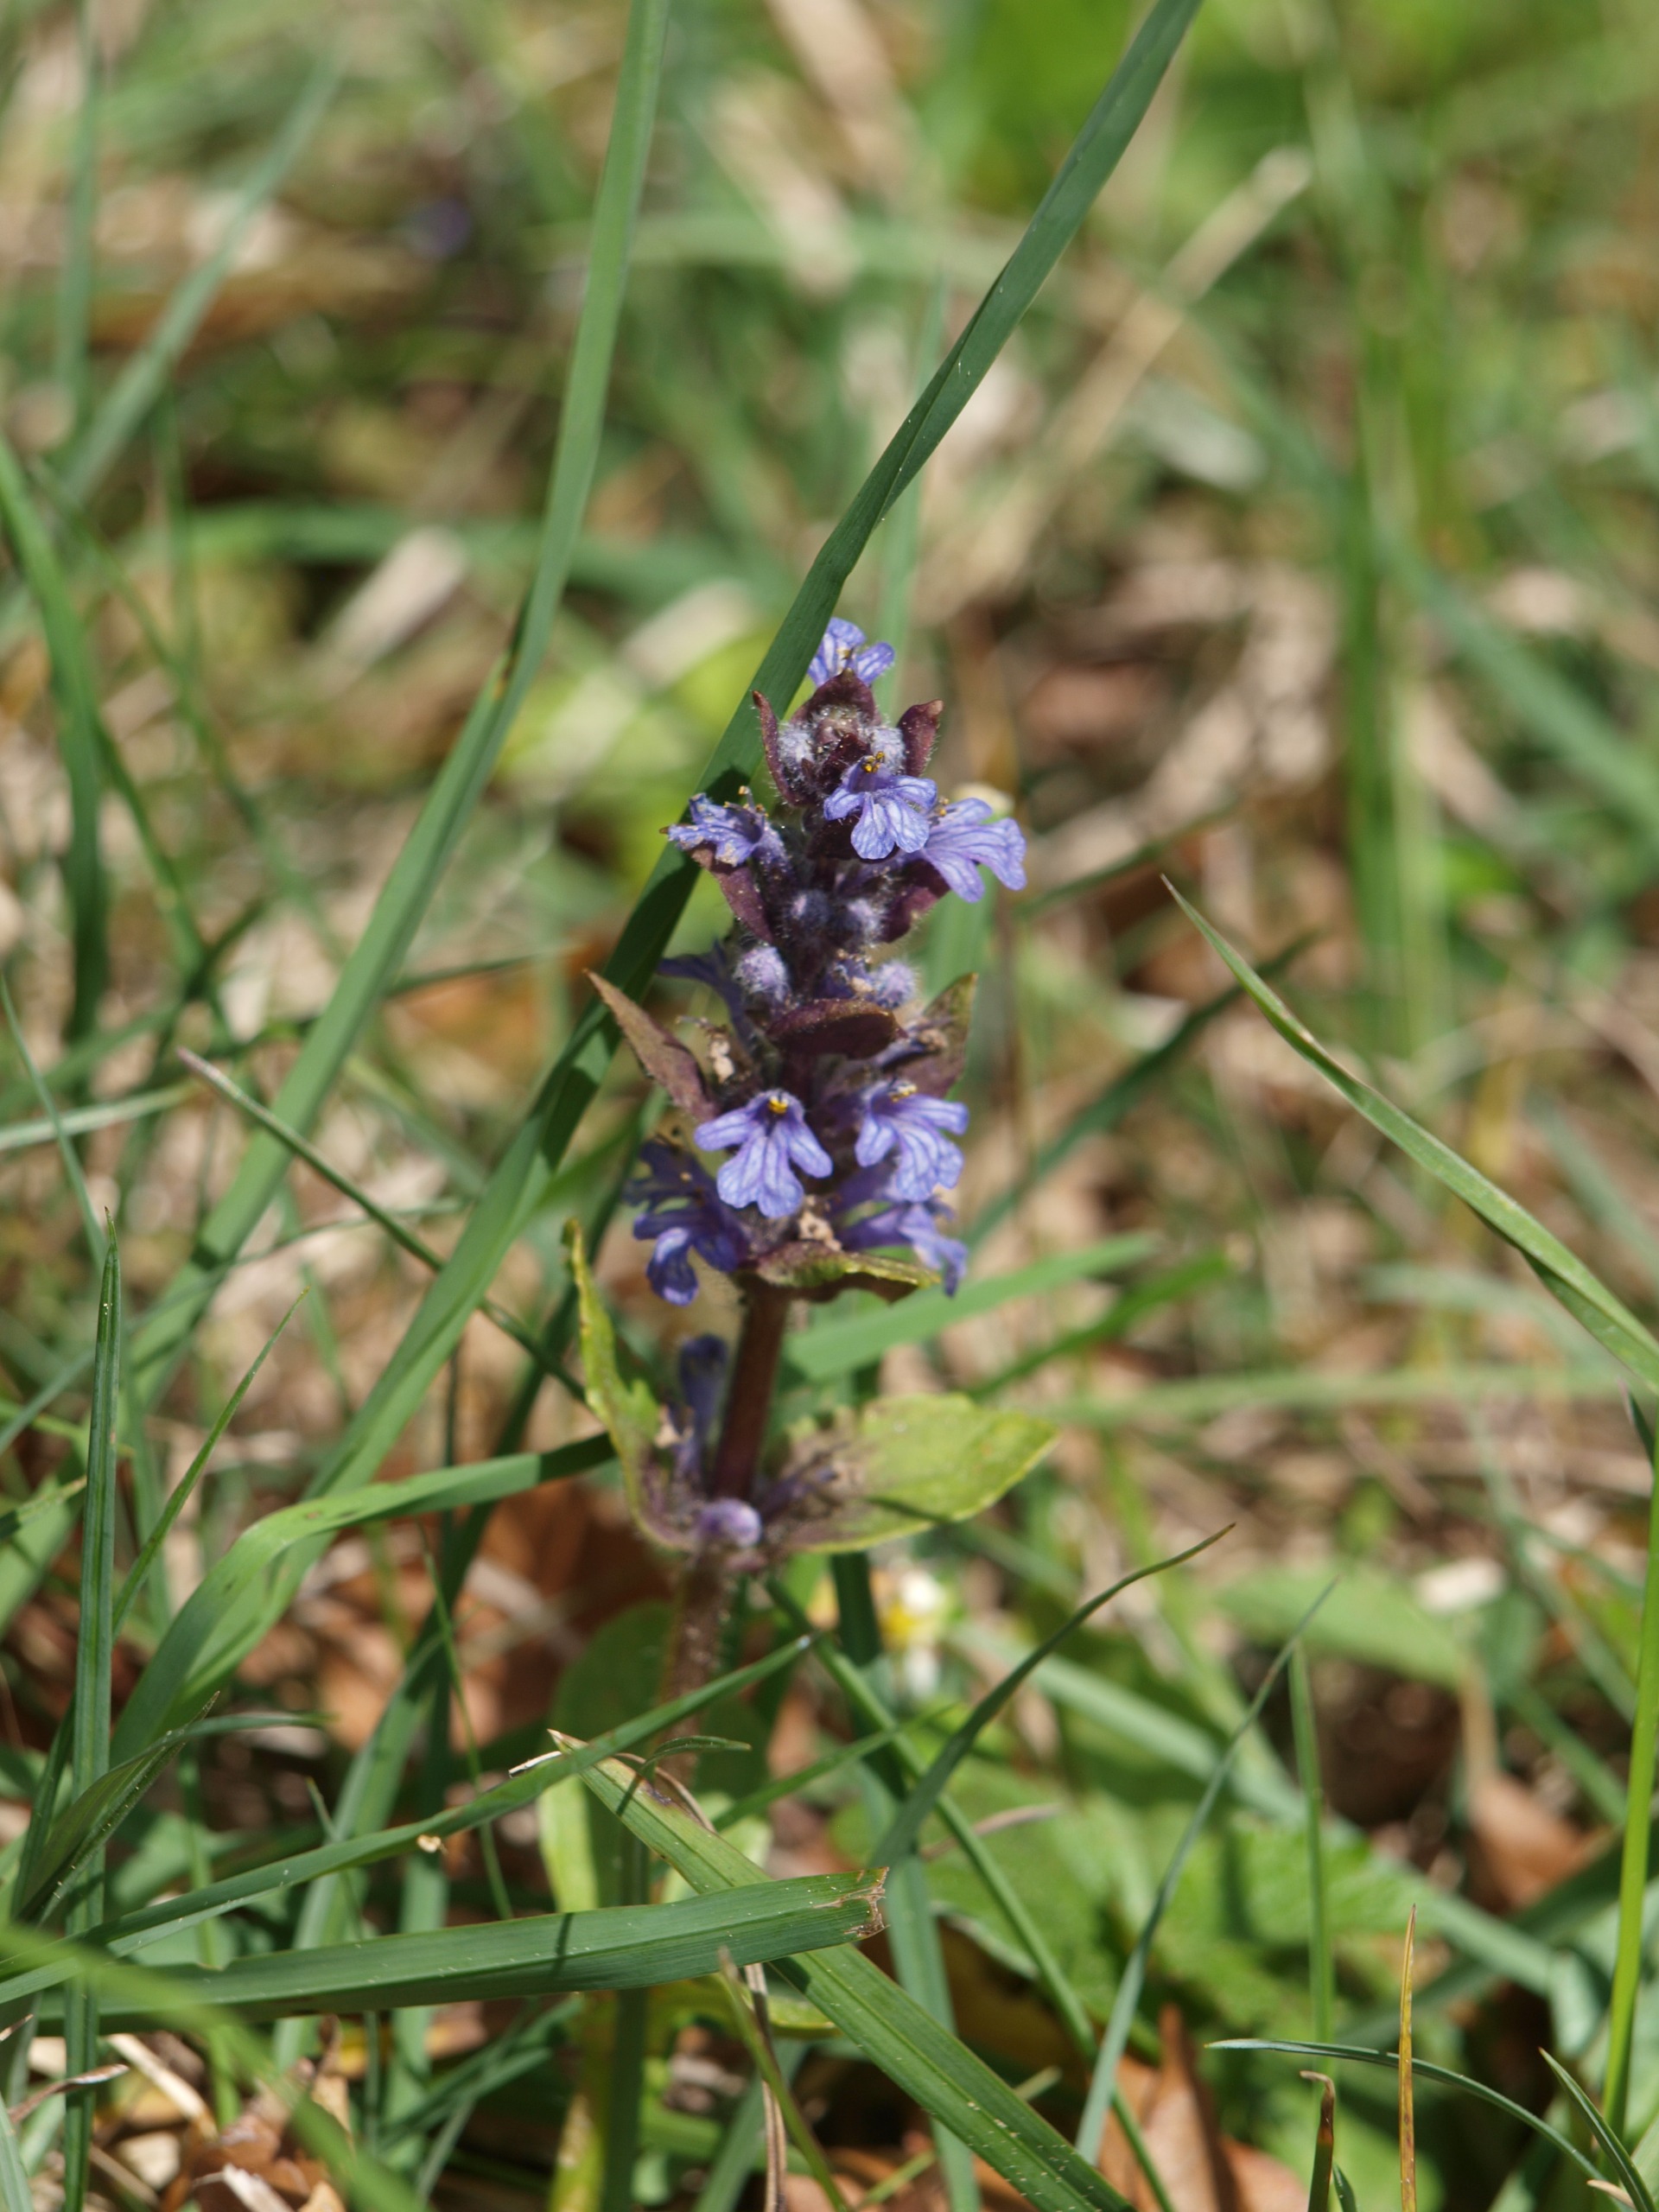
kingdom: Plantae
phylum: Tracheophyta
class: Magnoliopsida
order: Lamiales
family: Lamiaceae
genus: Ajuga
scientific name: Ajuga reptans
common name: Krybende læbeløs
